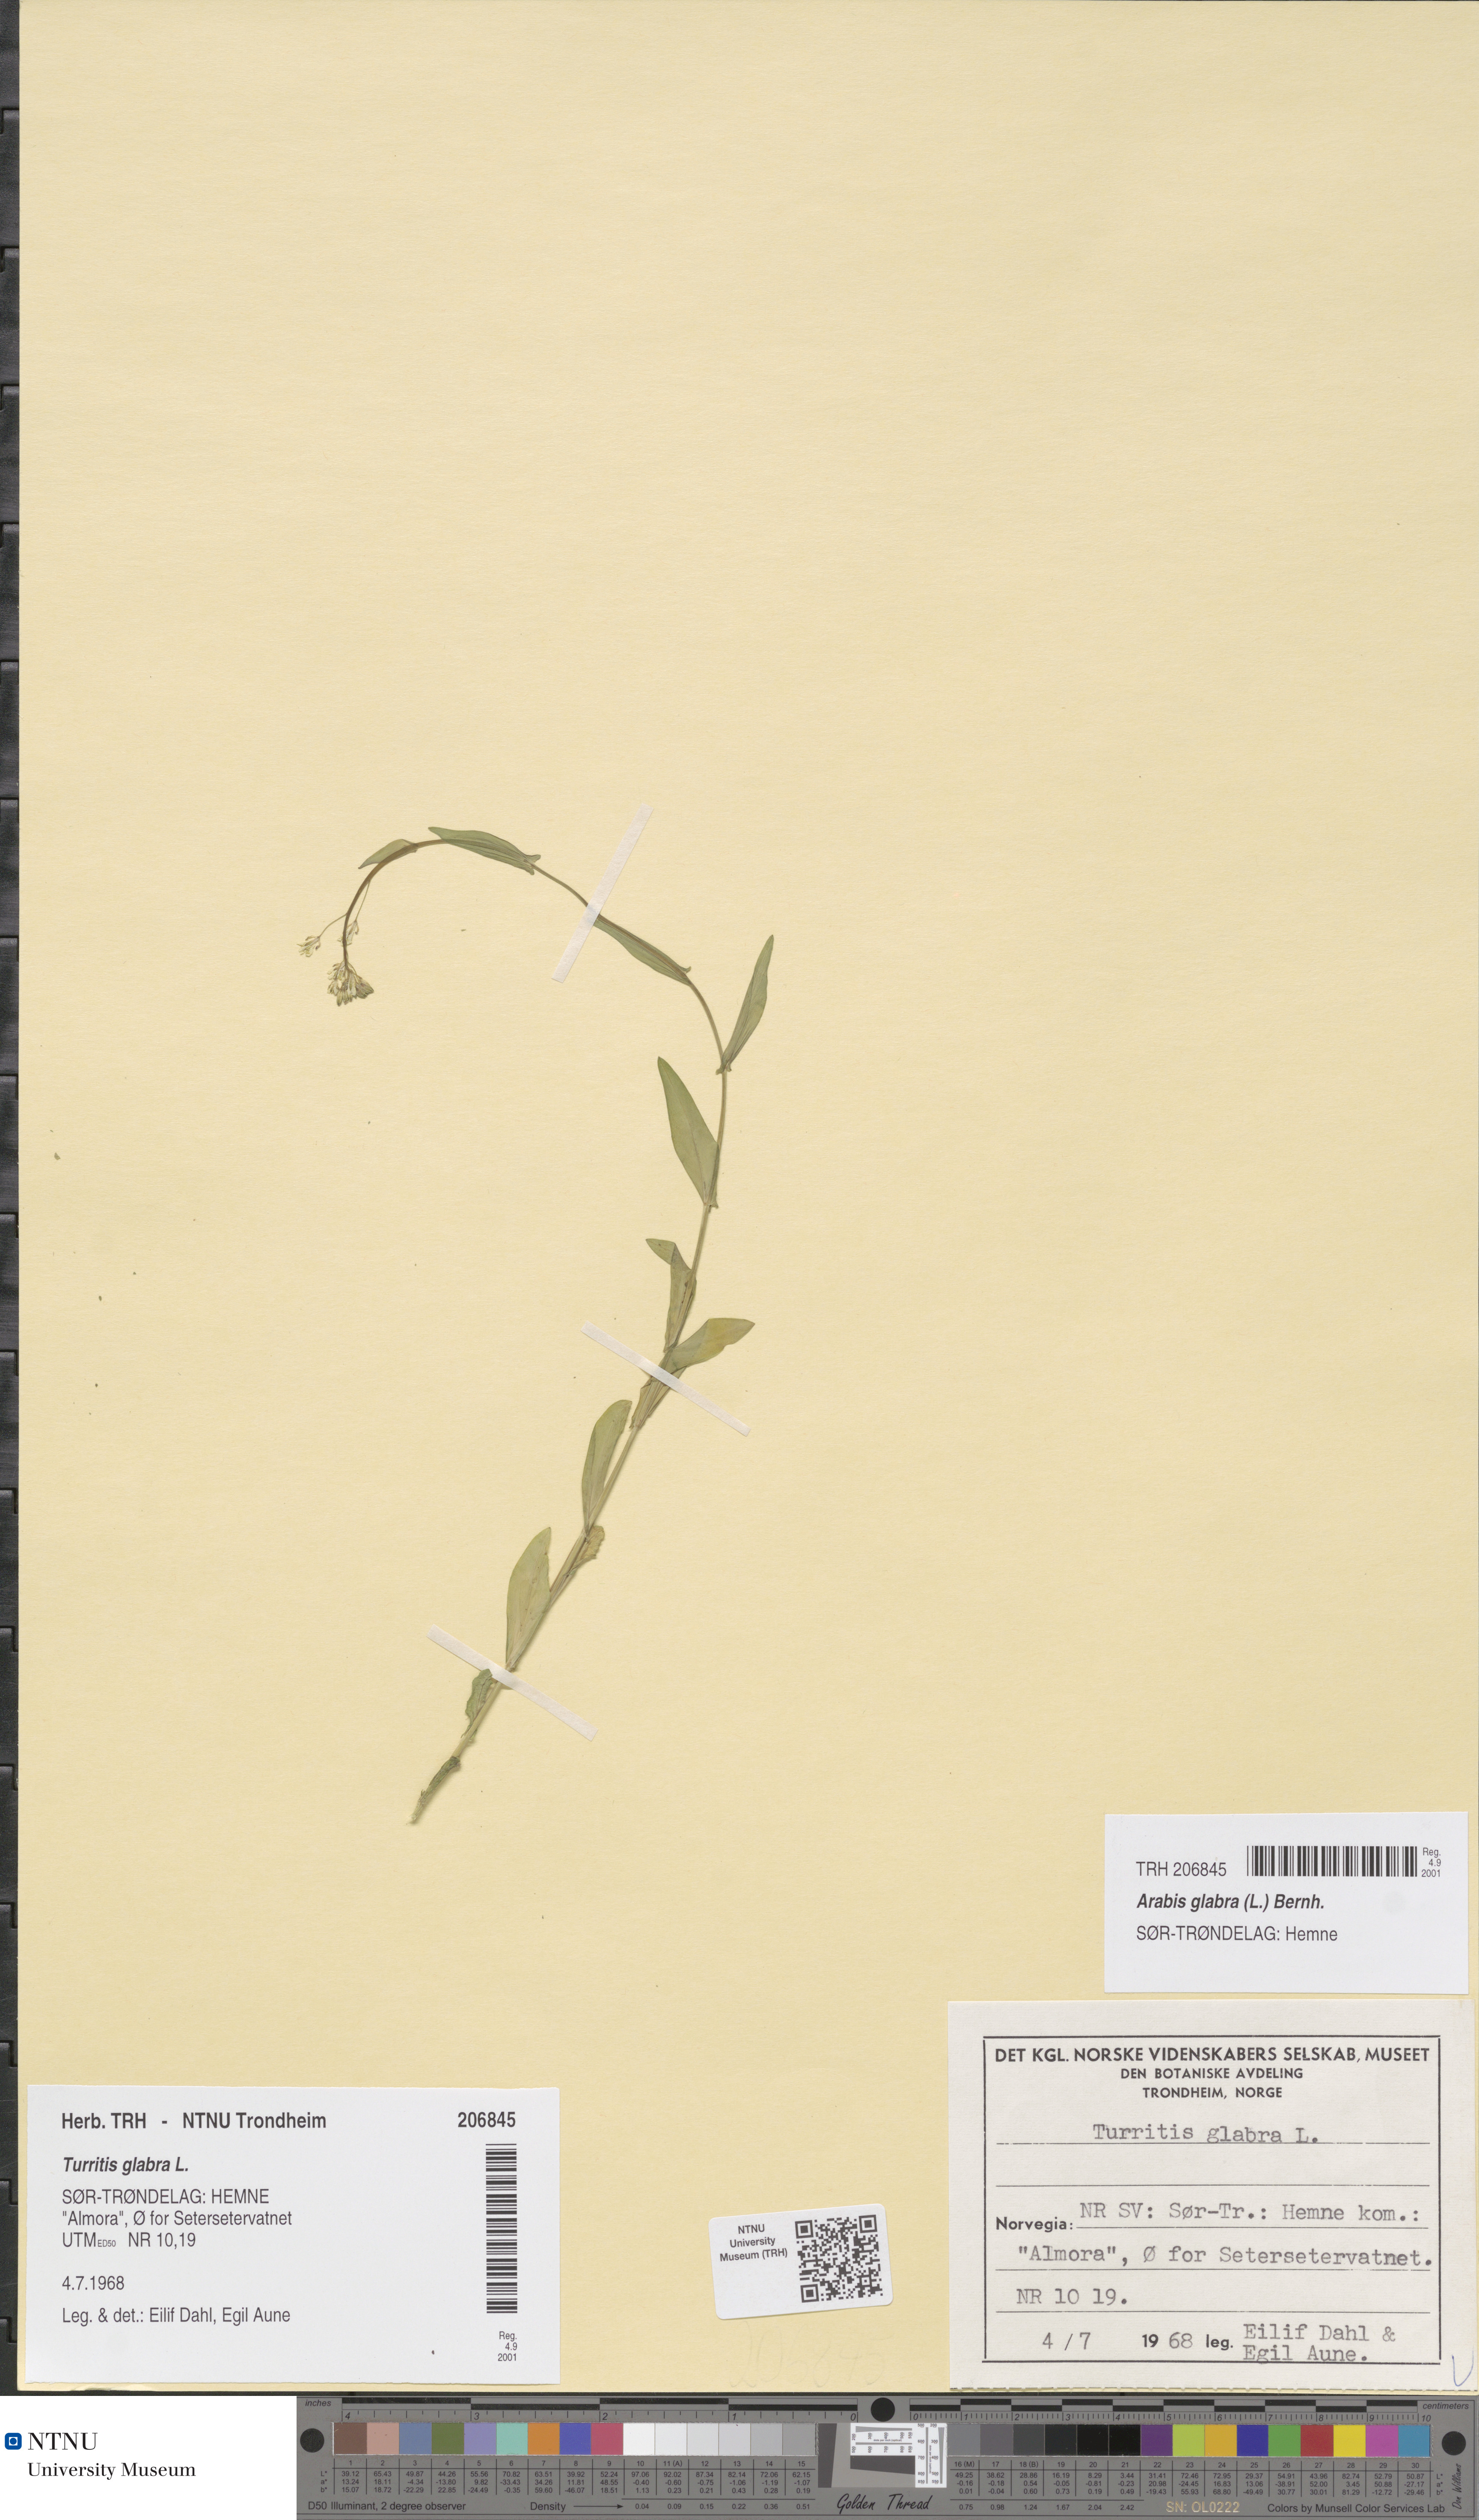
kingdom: Plantae
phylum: Tracheophyta
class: Magnoliopsida
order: Brassicales
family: Brassicaceae
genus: Turritis
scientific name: Turritis glabra
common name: Tower rockcress
